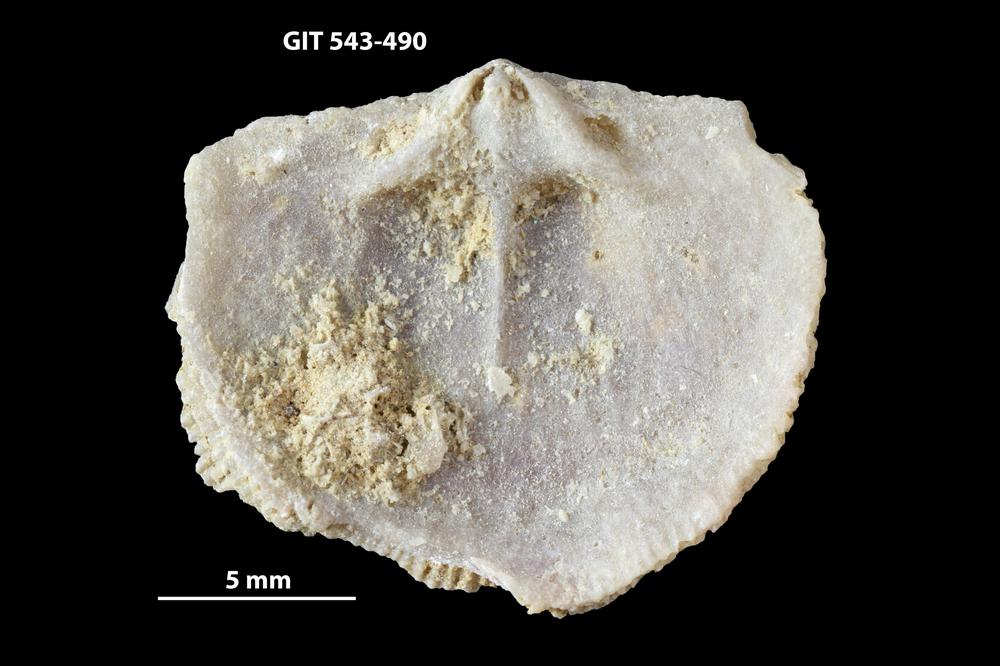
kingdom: Animalia
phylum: Brachiopoda
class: Rhynchonellata
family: Clitambonitidae
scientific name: Clitambonitidae
